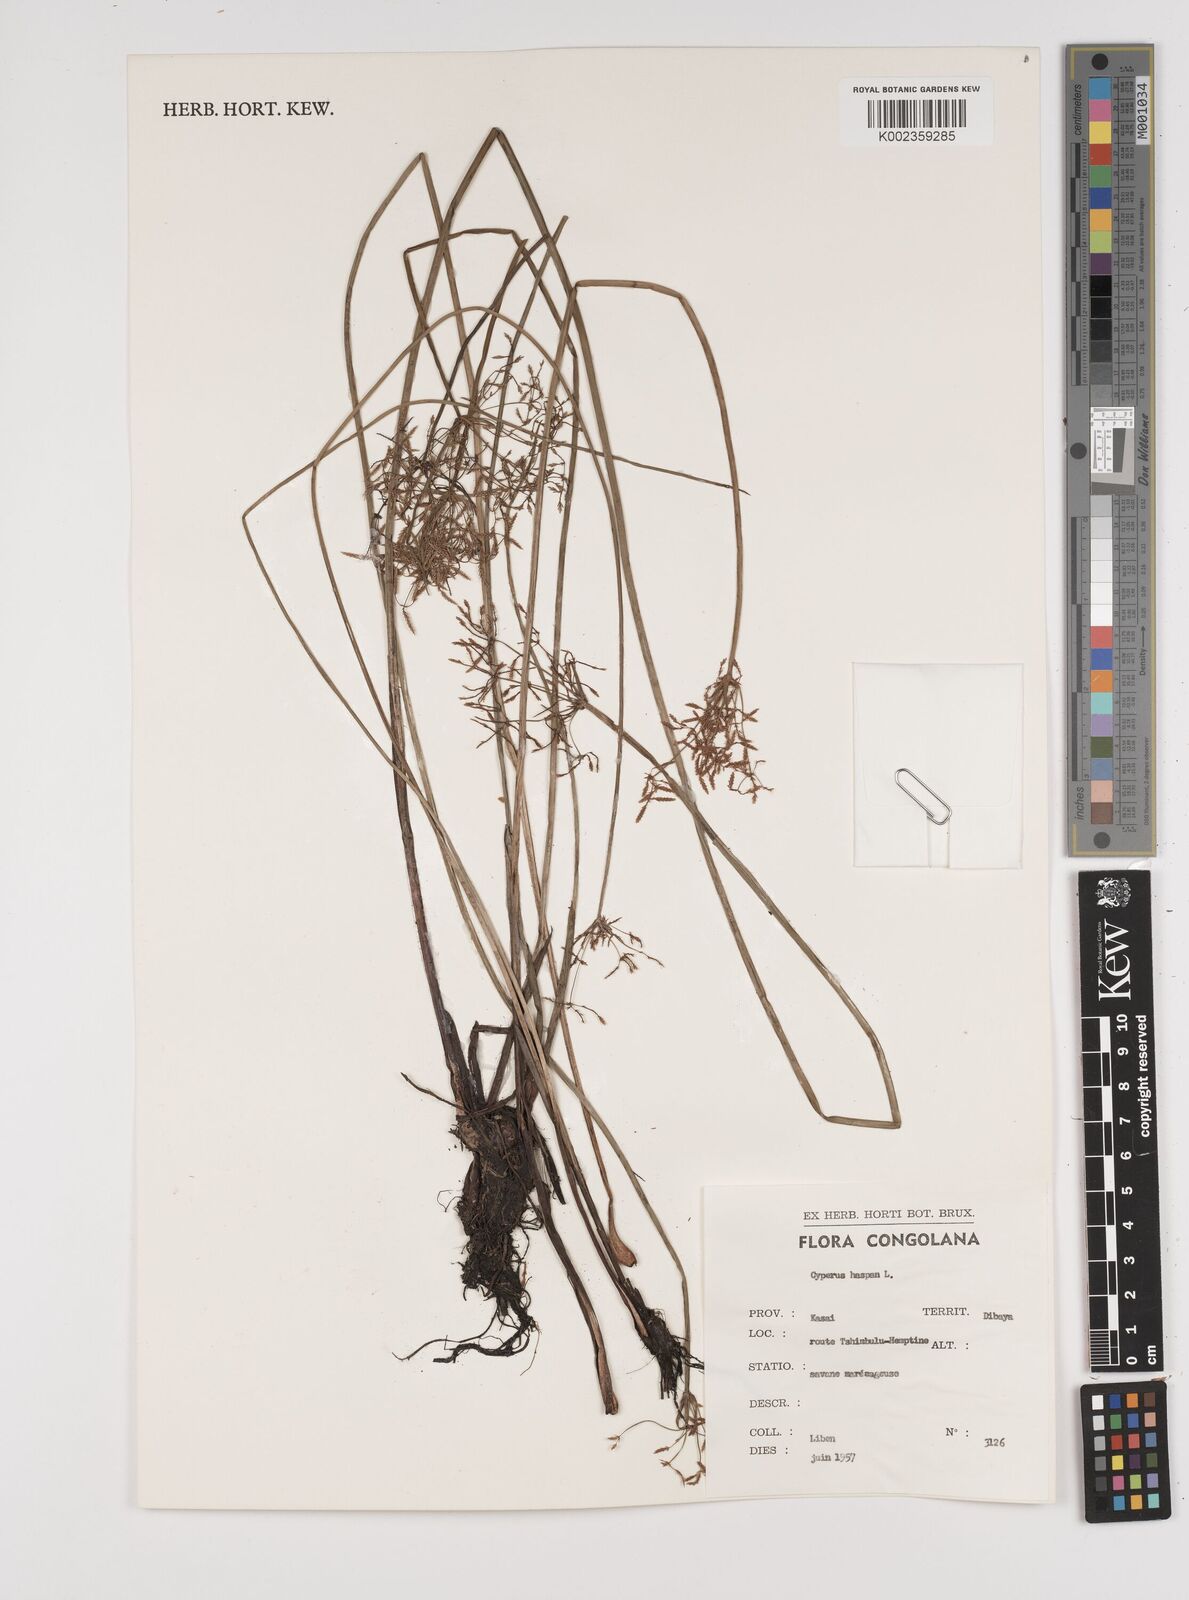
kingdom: Plantae
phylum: Tracheophyta
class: Liliopsida
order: Poales
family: Cyperaceae
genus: Cyperus
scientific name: Cyperus haspan
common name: Haspan flatsedge
